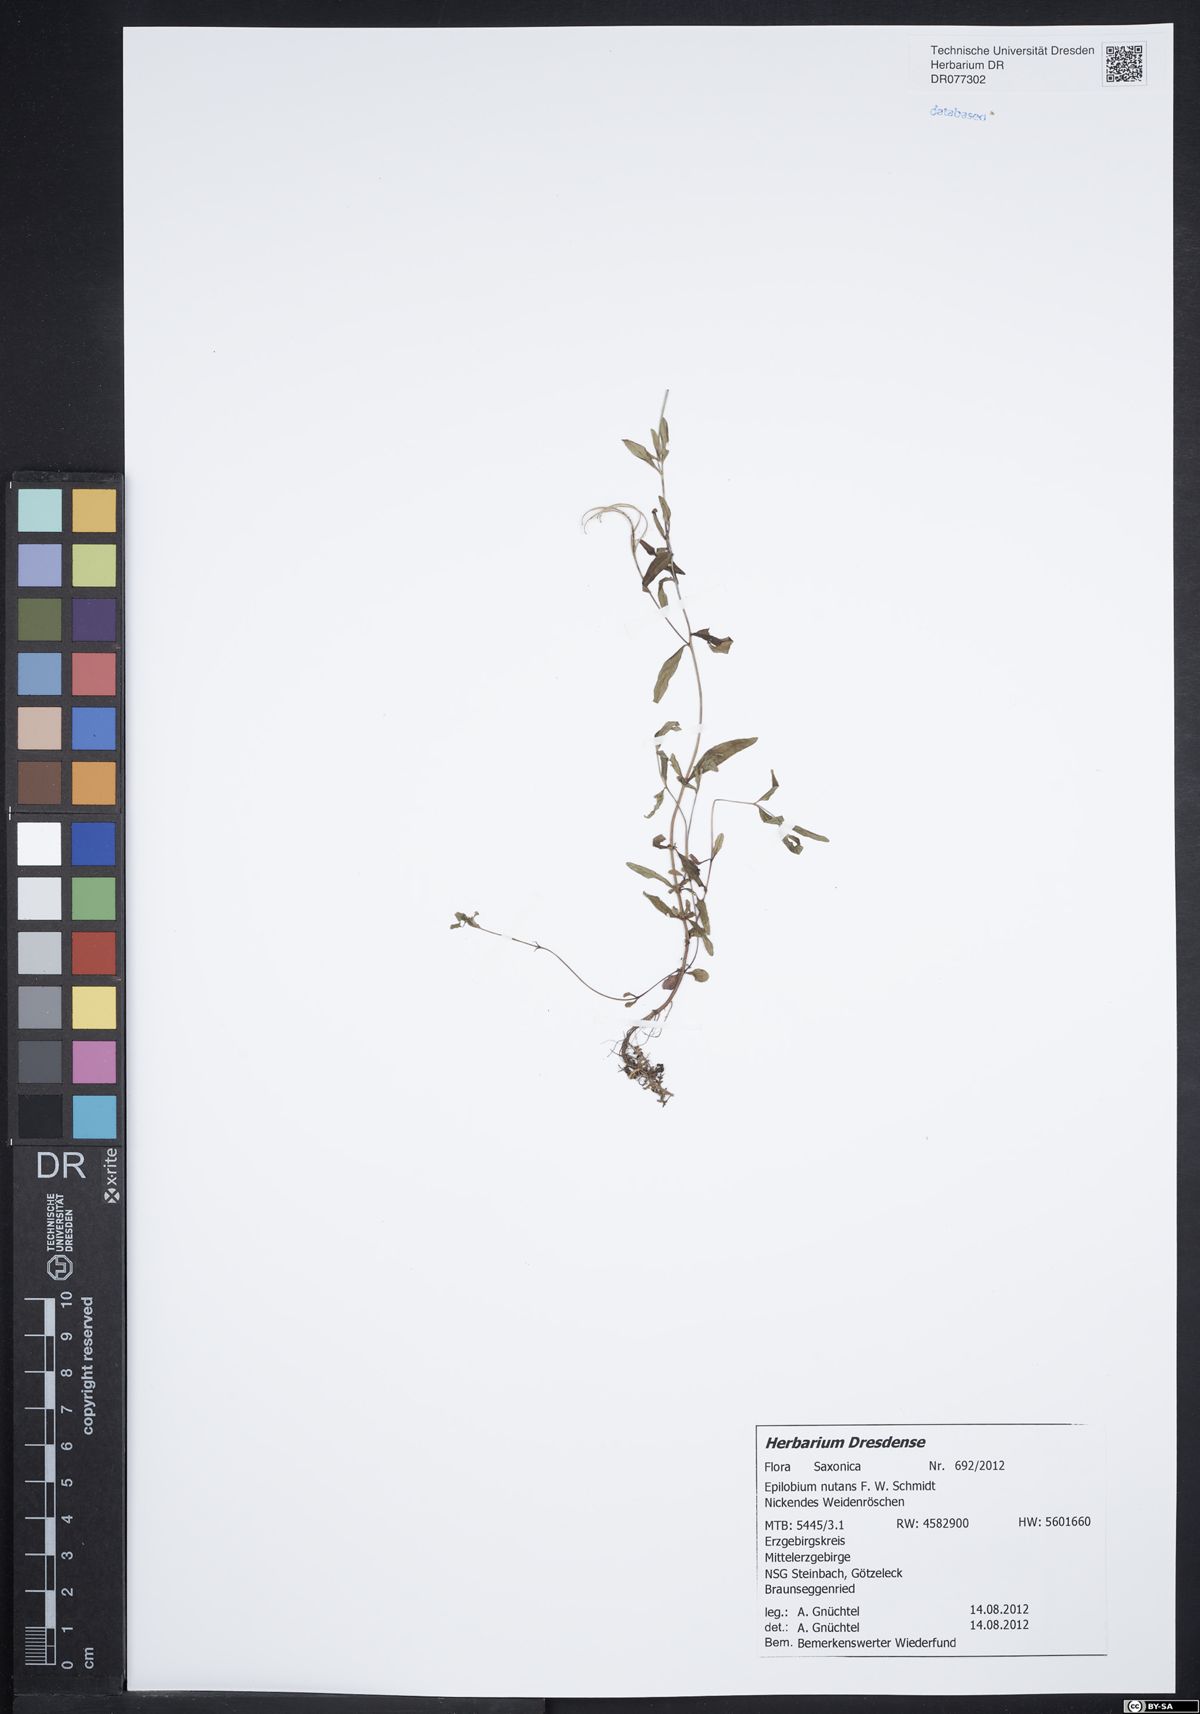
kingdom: Plantae
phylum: Tracheophyta
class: Magnoliopsida
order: Myrtales
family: Onagraceae
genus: Epilobium
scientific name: Epilobium nutans
